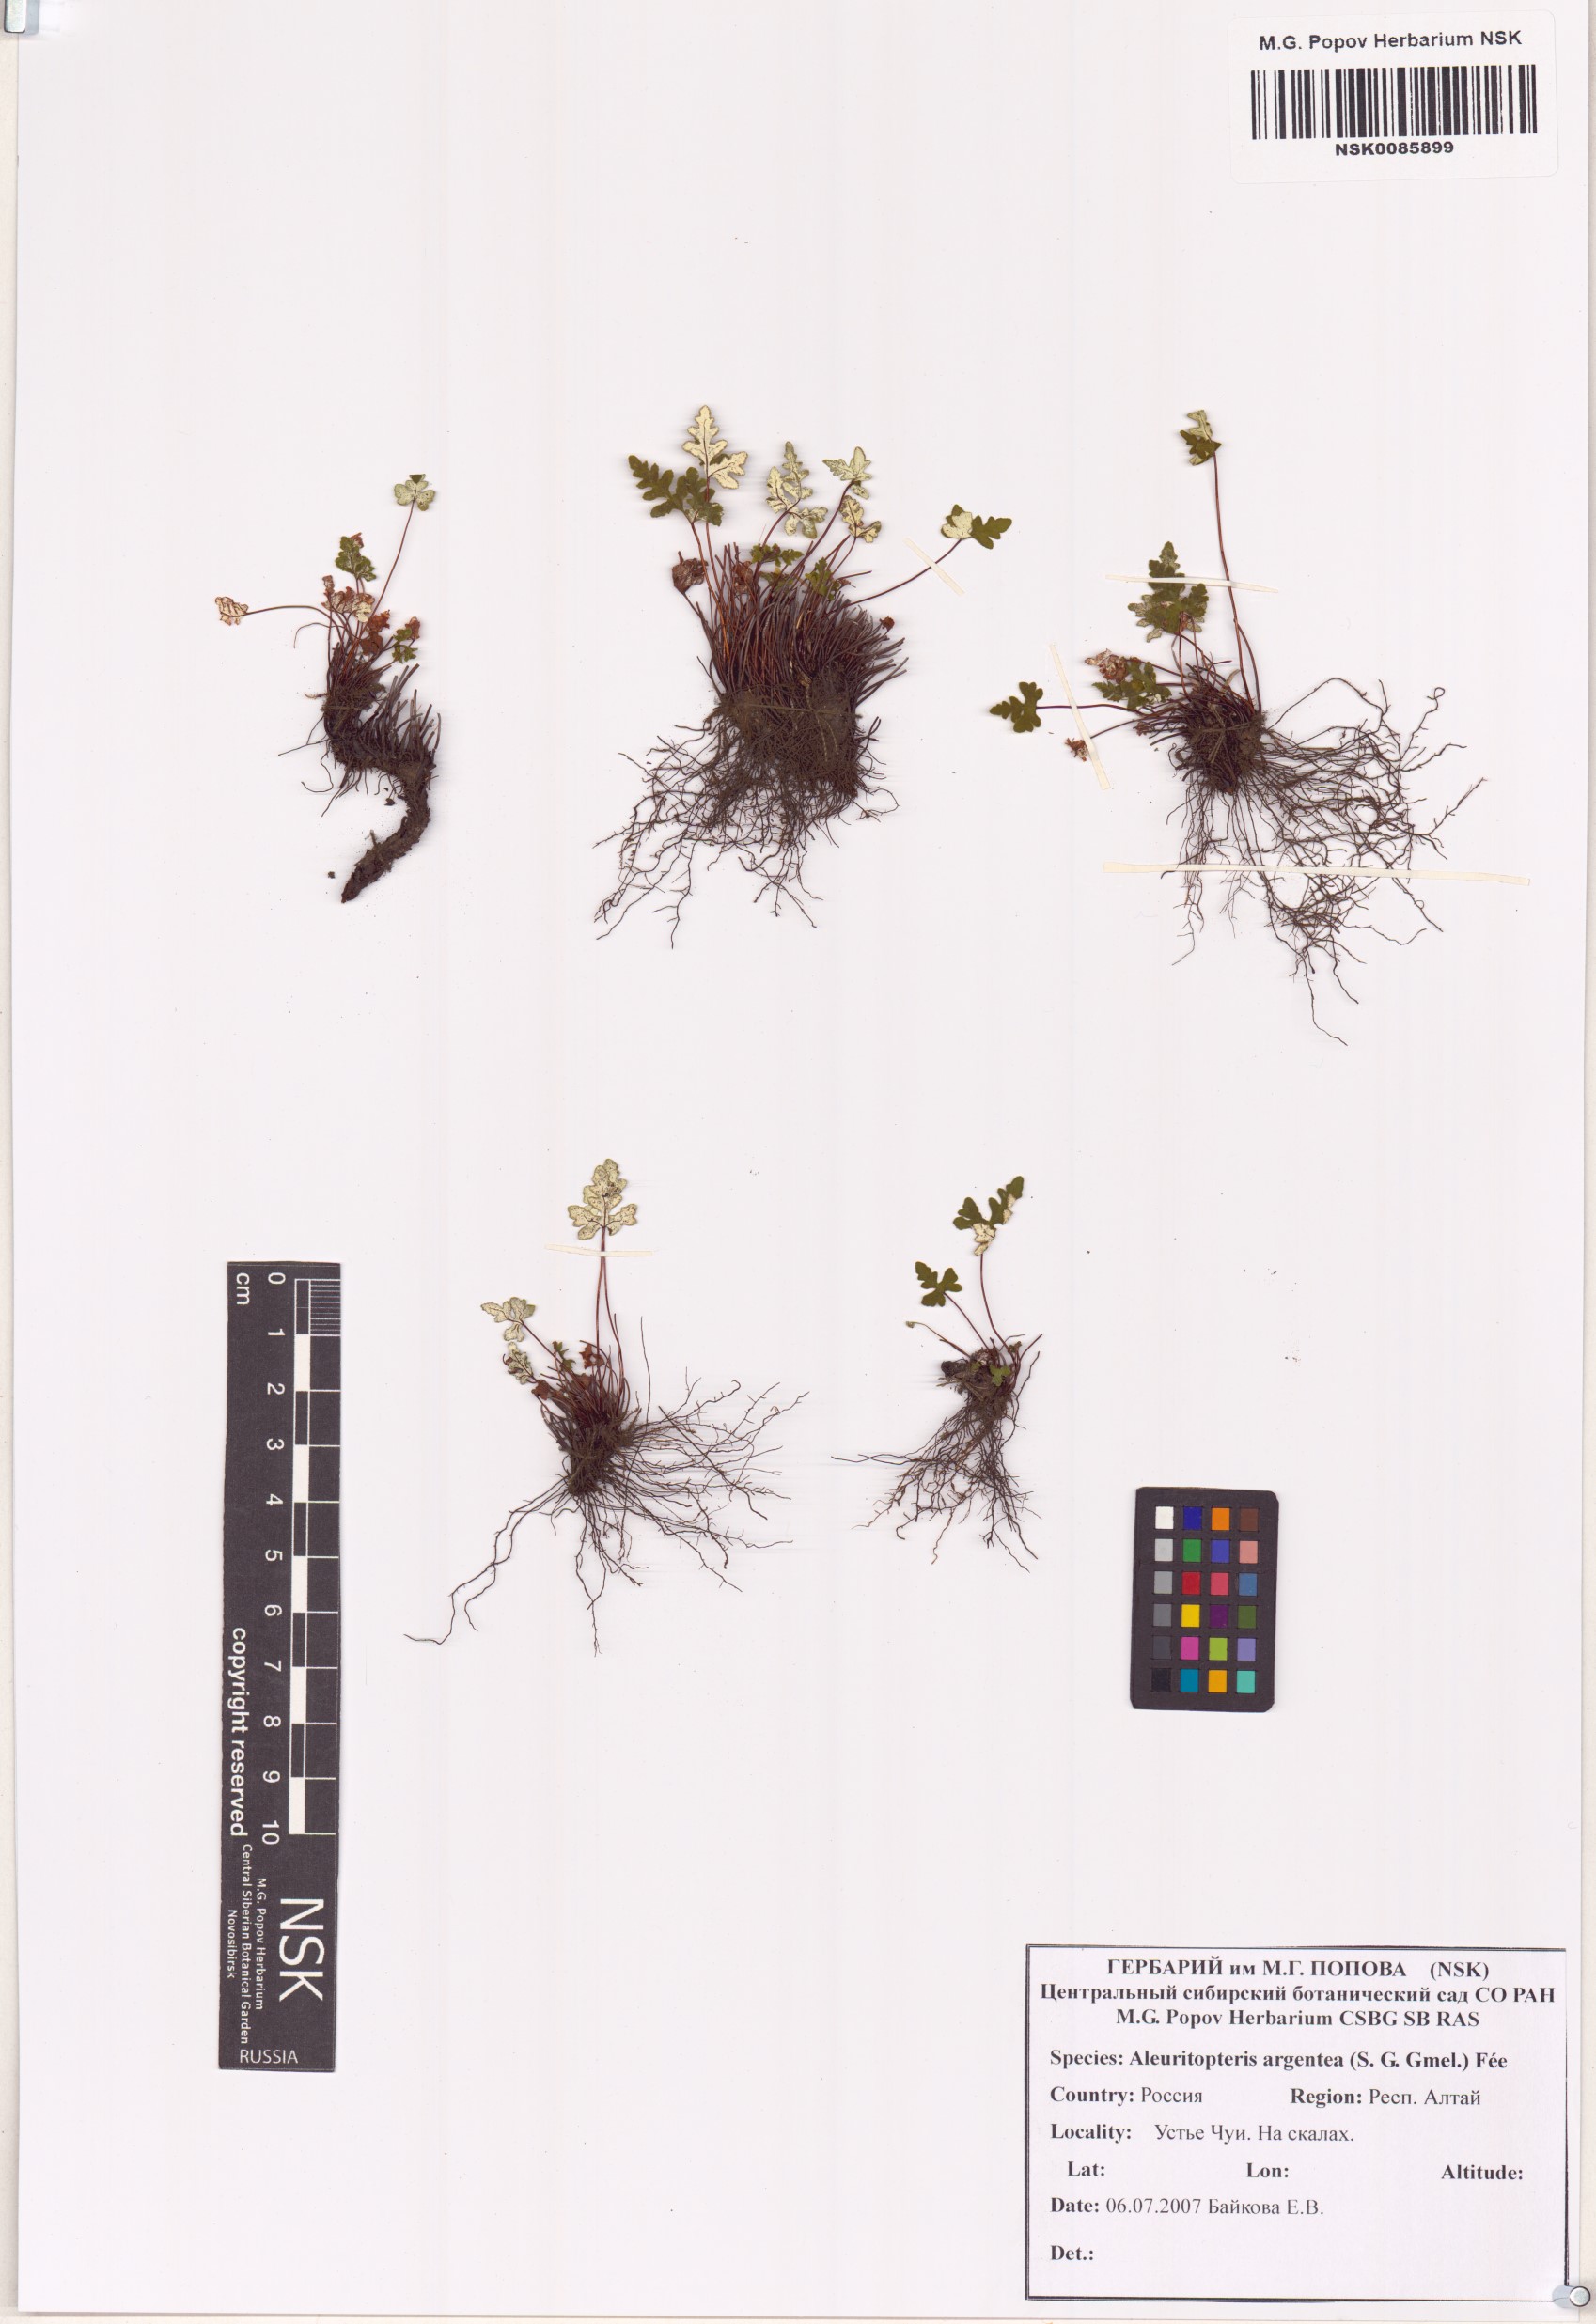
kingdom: Plantae
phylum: Tracheophyta
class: Polypodiopsida
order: Polypodiales
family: Pteridaceae
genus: Aleuritopteris
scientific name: Aleuritopteris argentea
